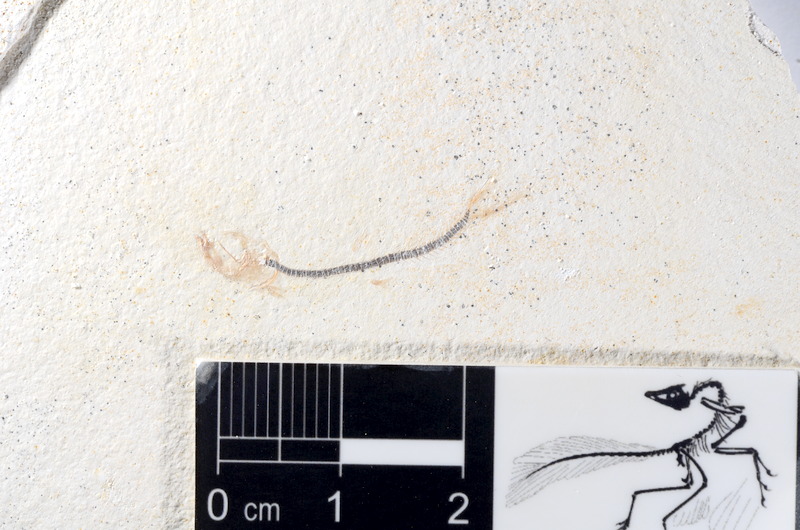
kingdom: Animalia
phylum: Chordata
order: Salmoniformes
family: Orthogonikleithridae
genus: Orthogonikleithrus
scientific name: Orthogonikleithrus hoelli
